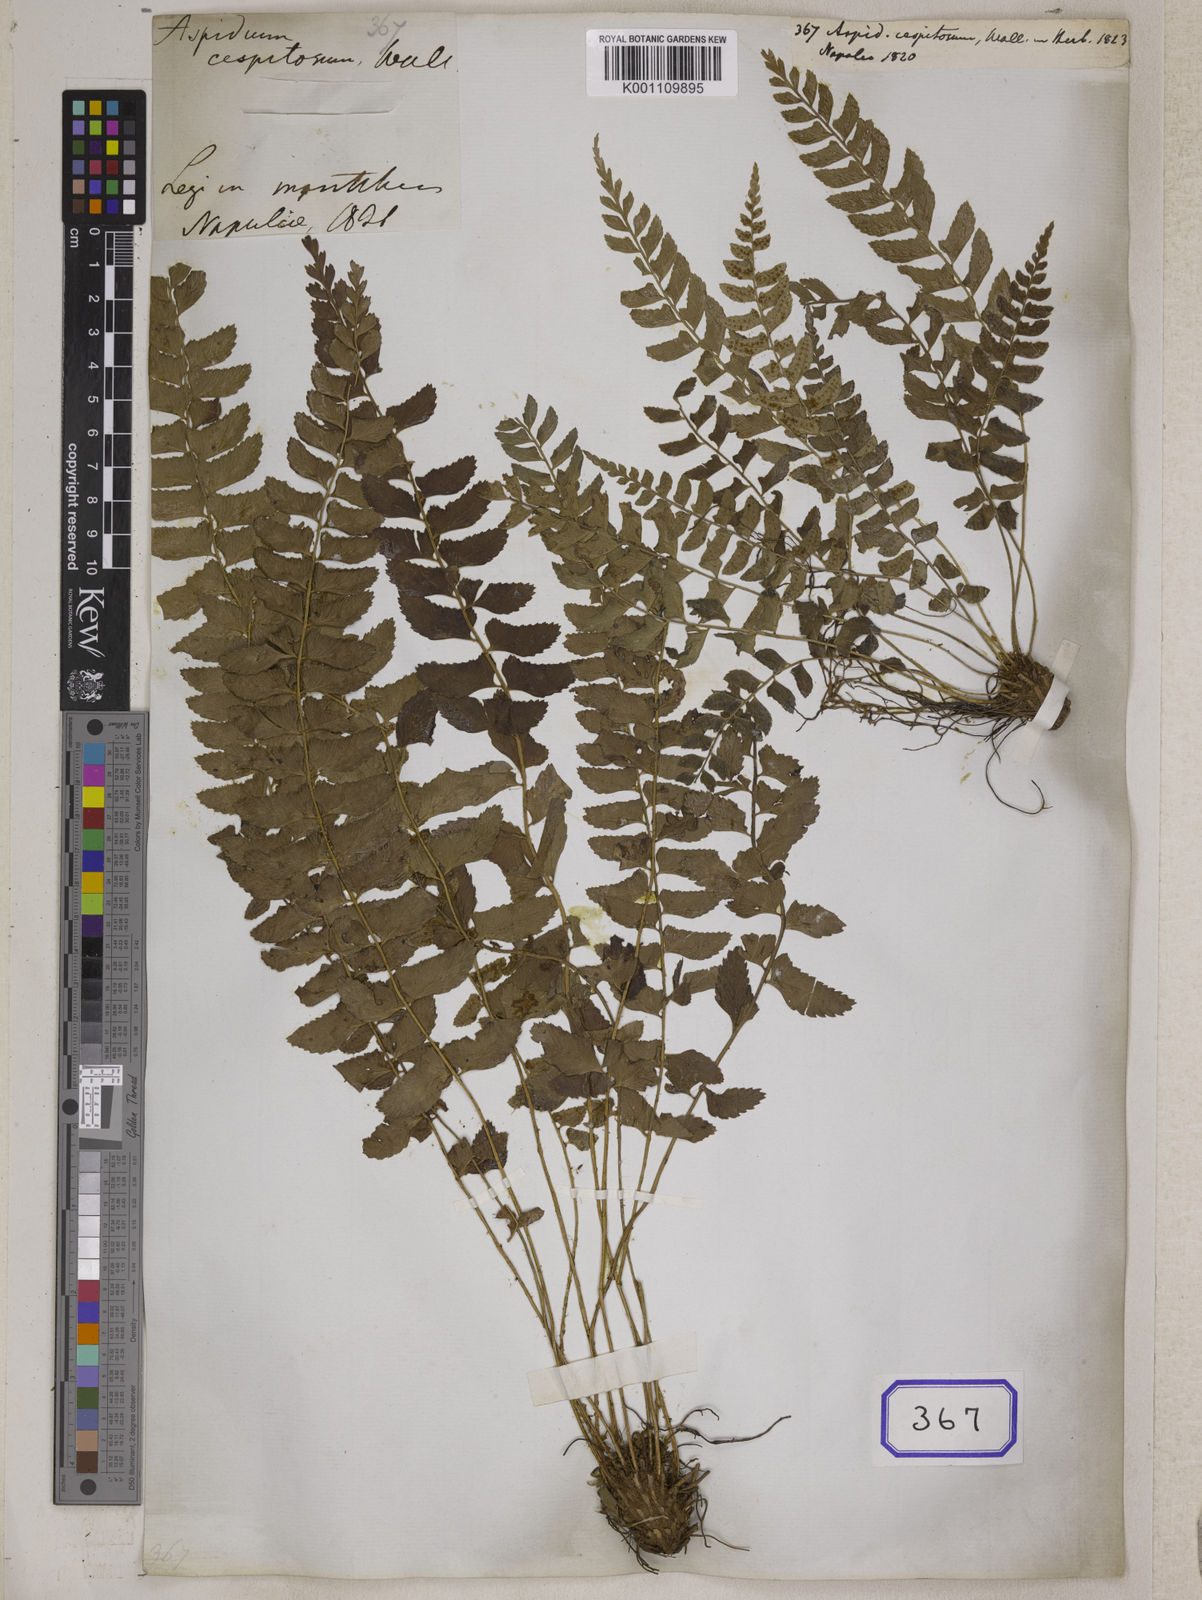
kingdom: Plantae
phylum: Tracheophyta
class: Polypodiopsida
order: Polypodiales
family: Dryopteridaceae
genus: Polystichum
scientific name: Polystichum obliquum
